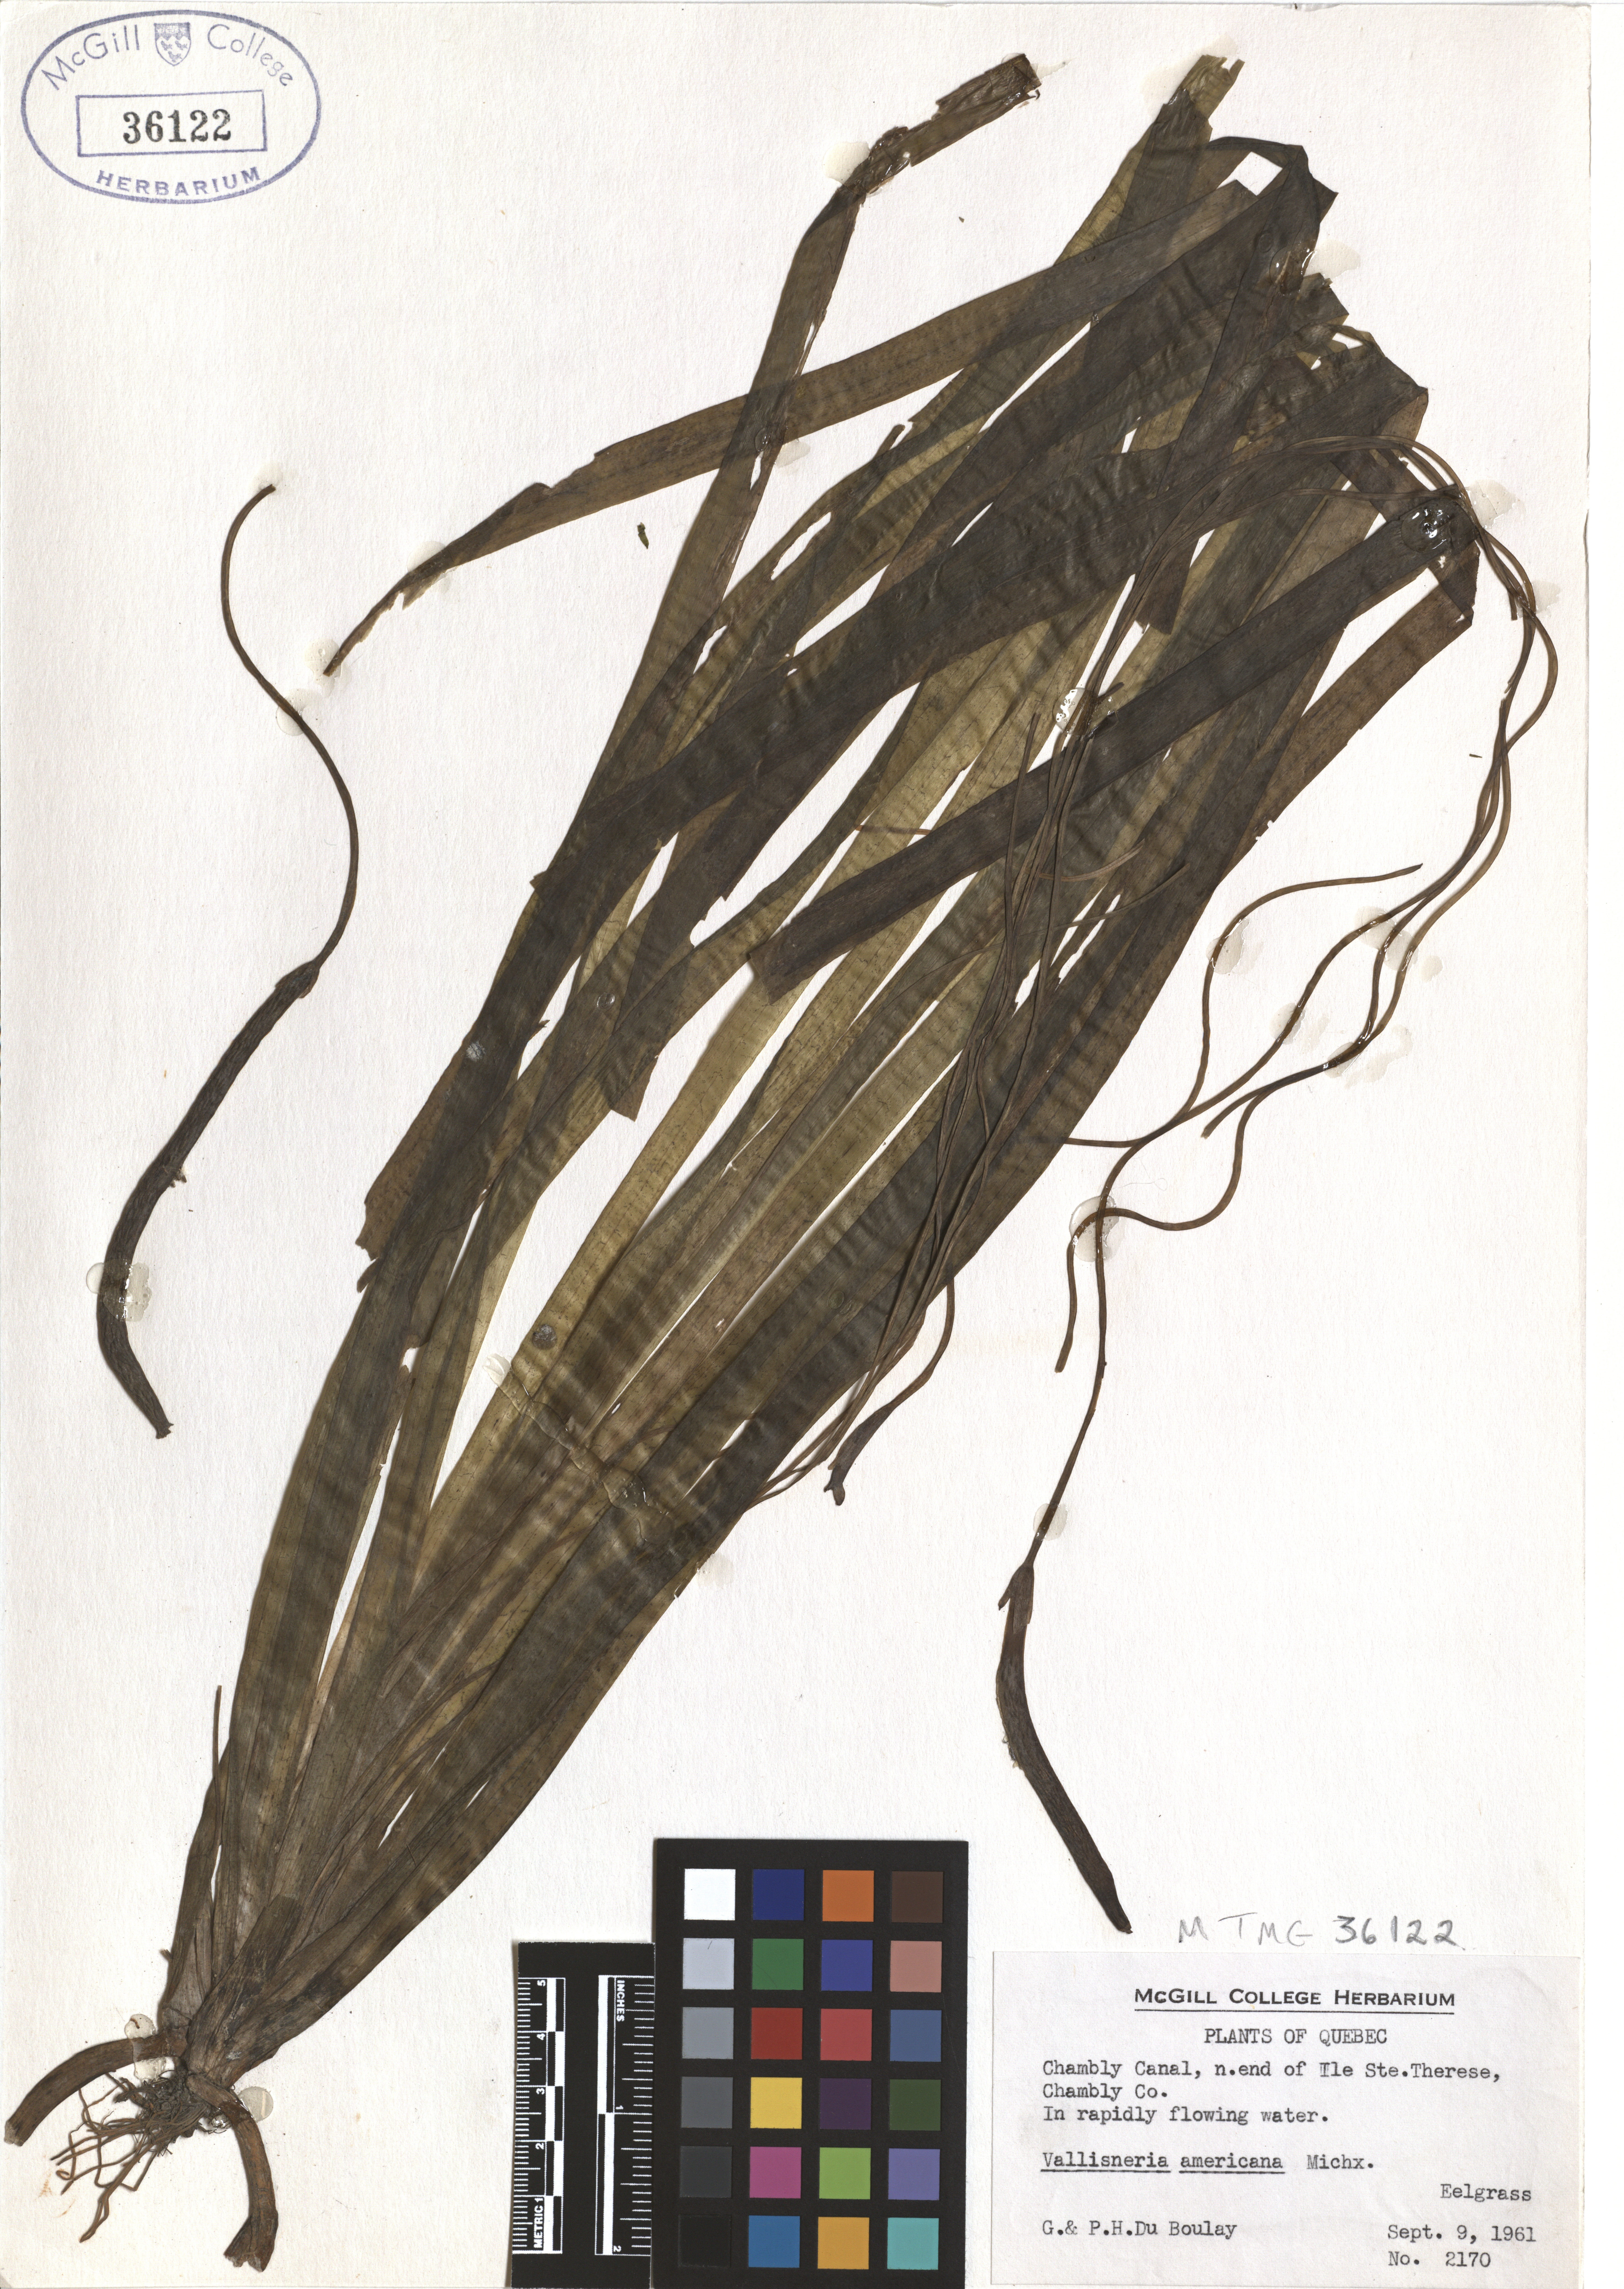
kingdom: Plantae
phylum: Tracheophyta
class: Liliopsida
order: Alismatales
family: Hydrocharitaceae
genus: Vallisneria
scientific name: Vallisneria americana
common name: American eelgrass
